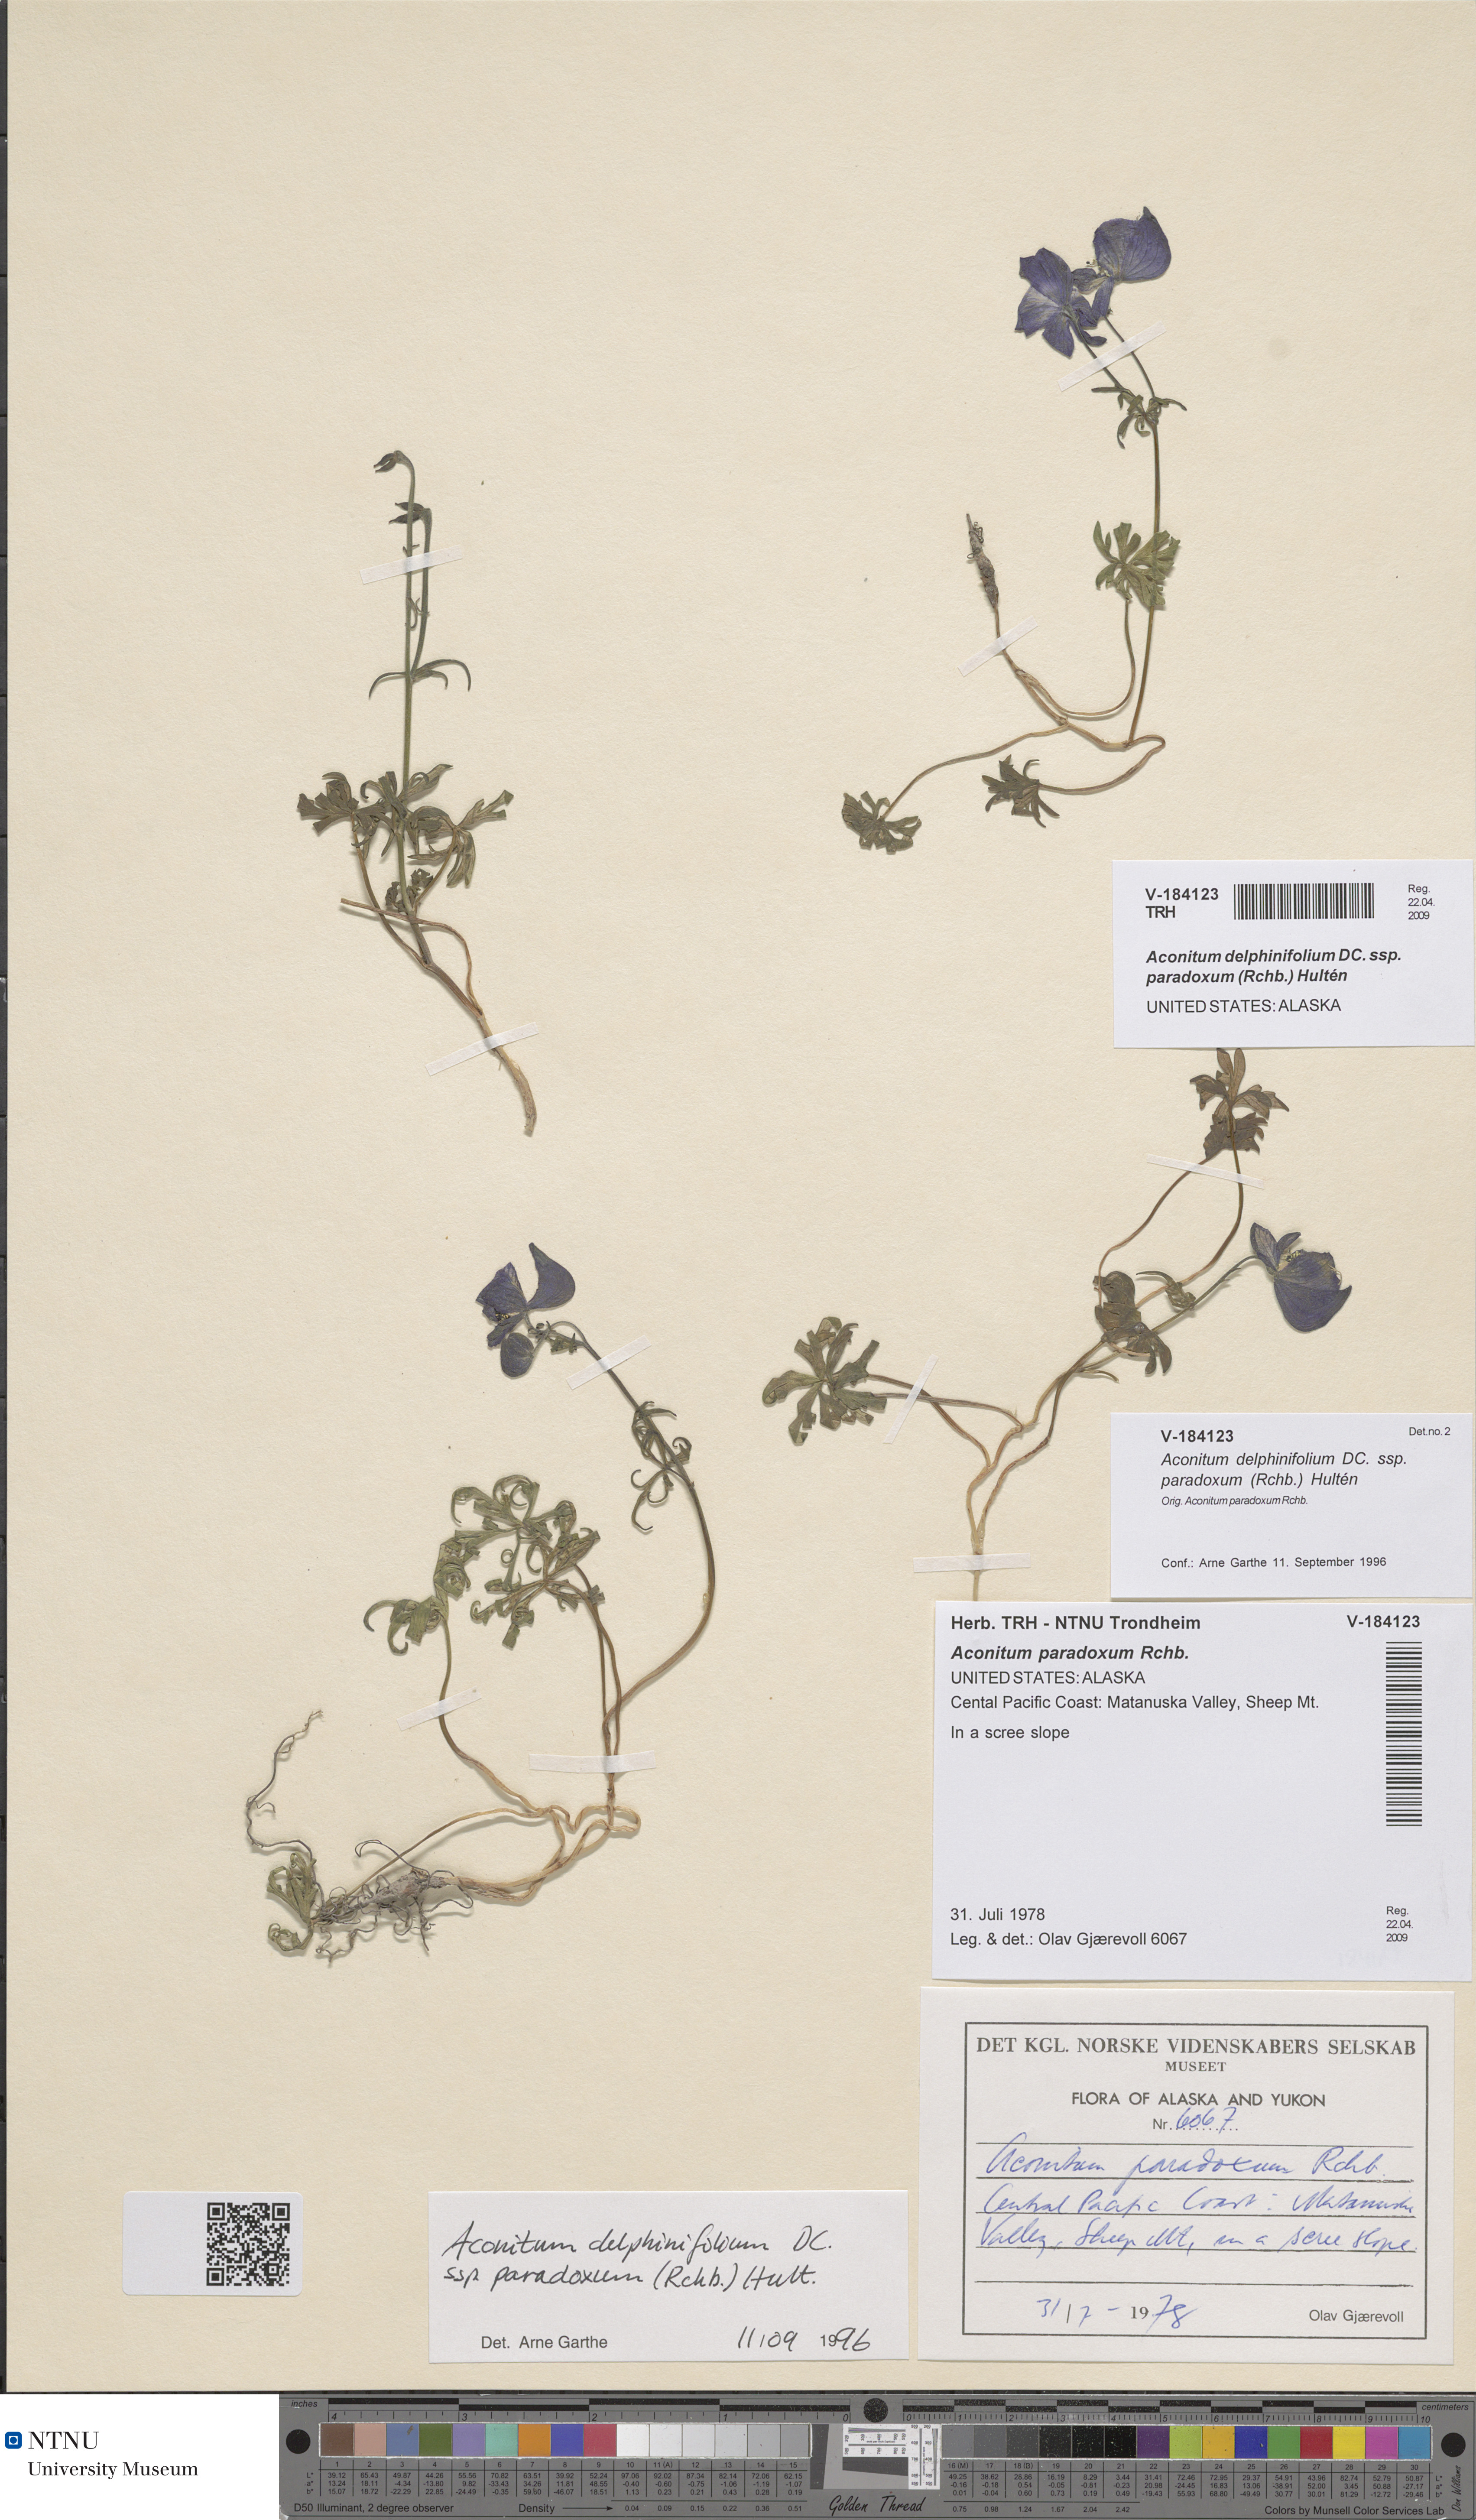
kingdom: Plantae
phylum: Tracheophyta
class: Magnoliopsida
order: Ranunculales
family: Ranunculaceae
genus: Aconitum
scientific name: Aconitum delphinifolium
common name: Larkspur-leaved monkshood
